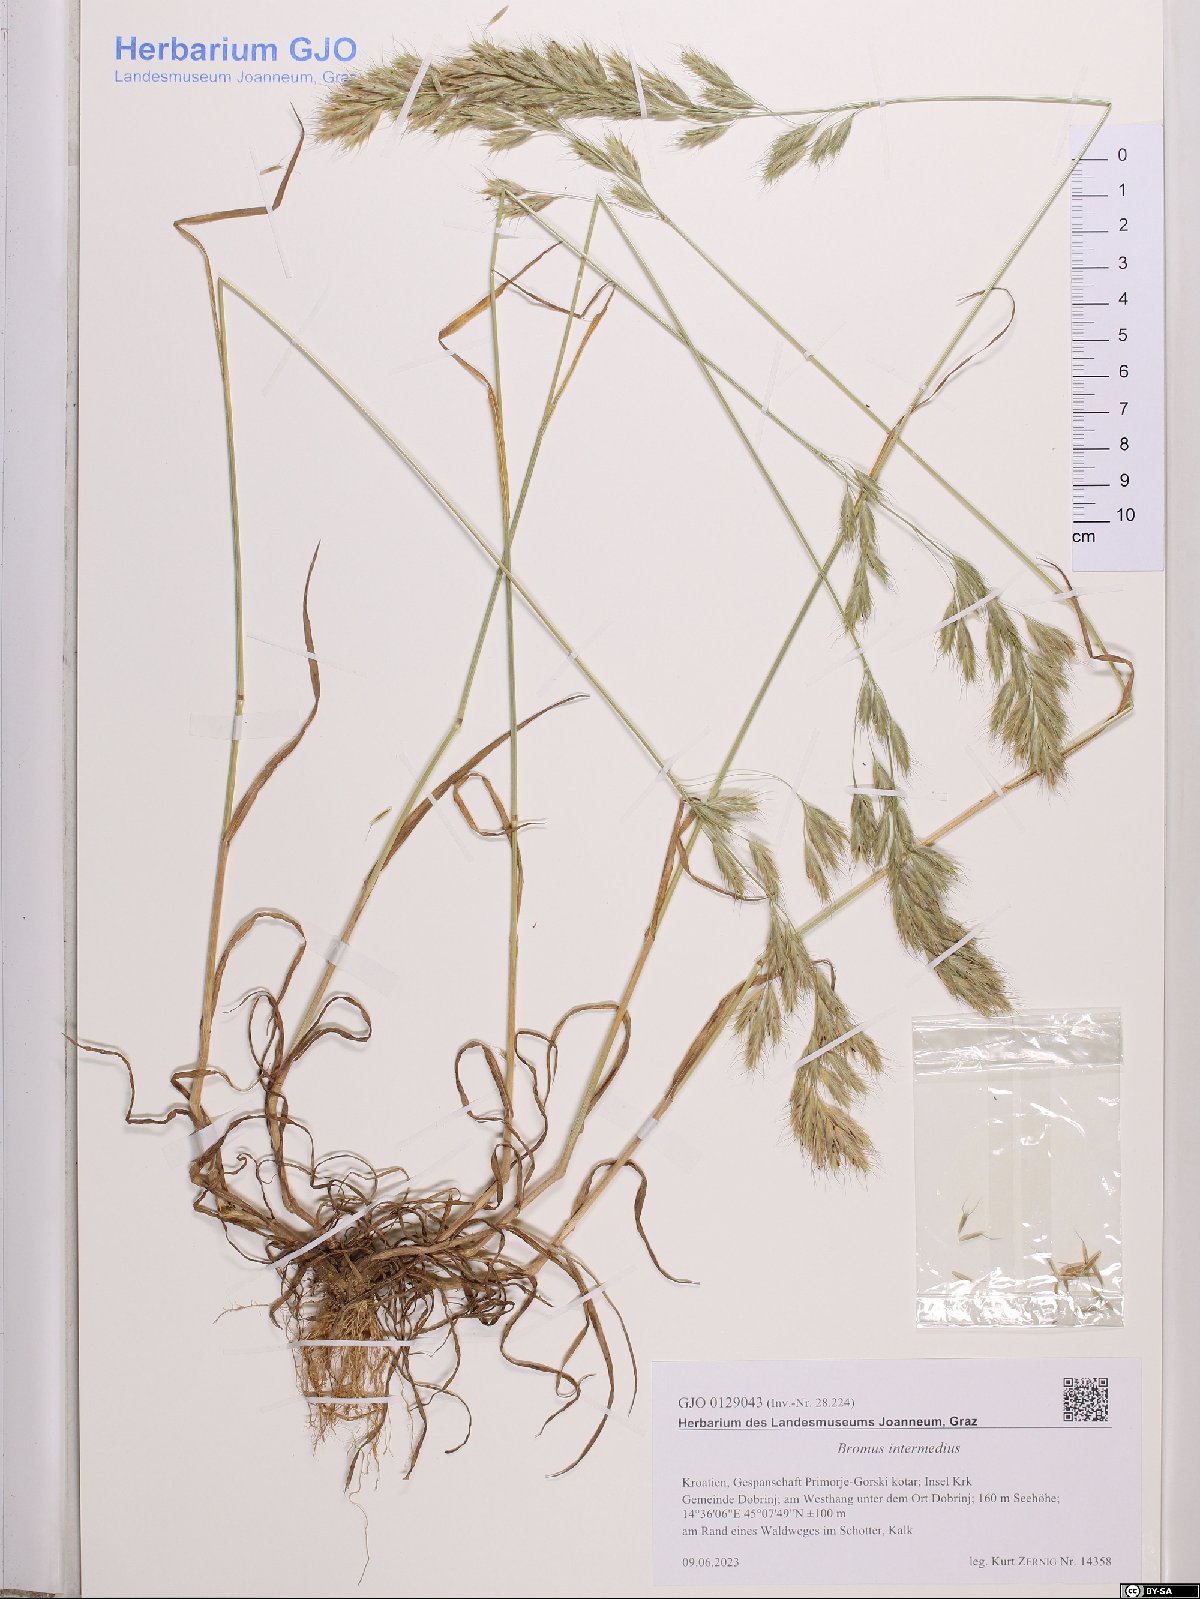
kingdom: Plantae
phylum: Tracheophyta
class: Liliopsida
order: Poales
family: Poaceae
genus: Bromus
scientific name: Bromus intermedius
